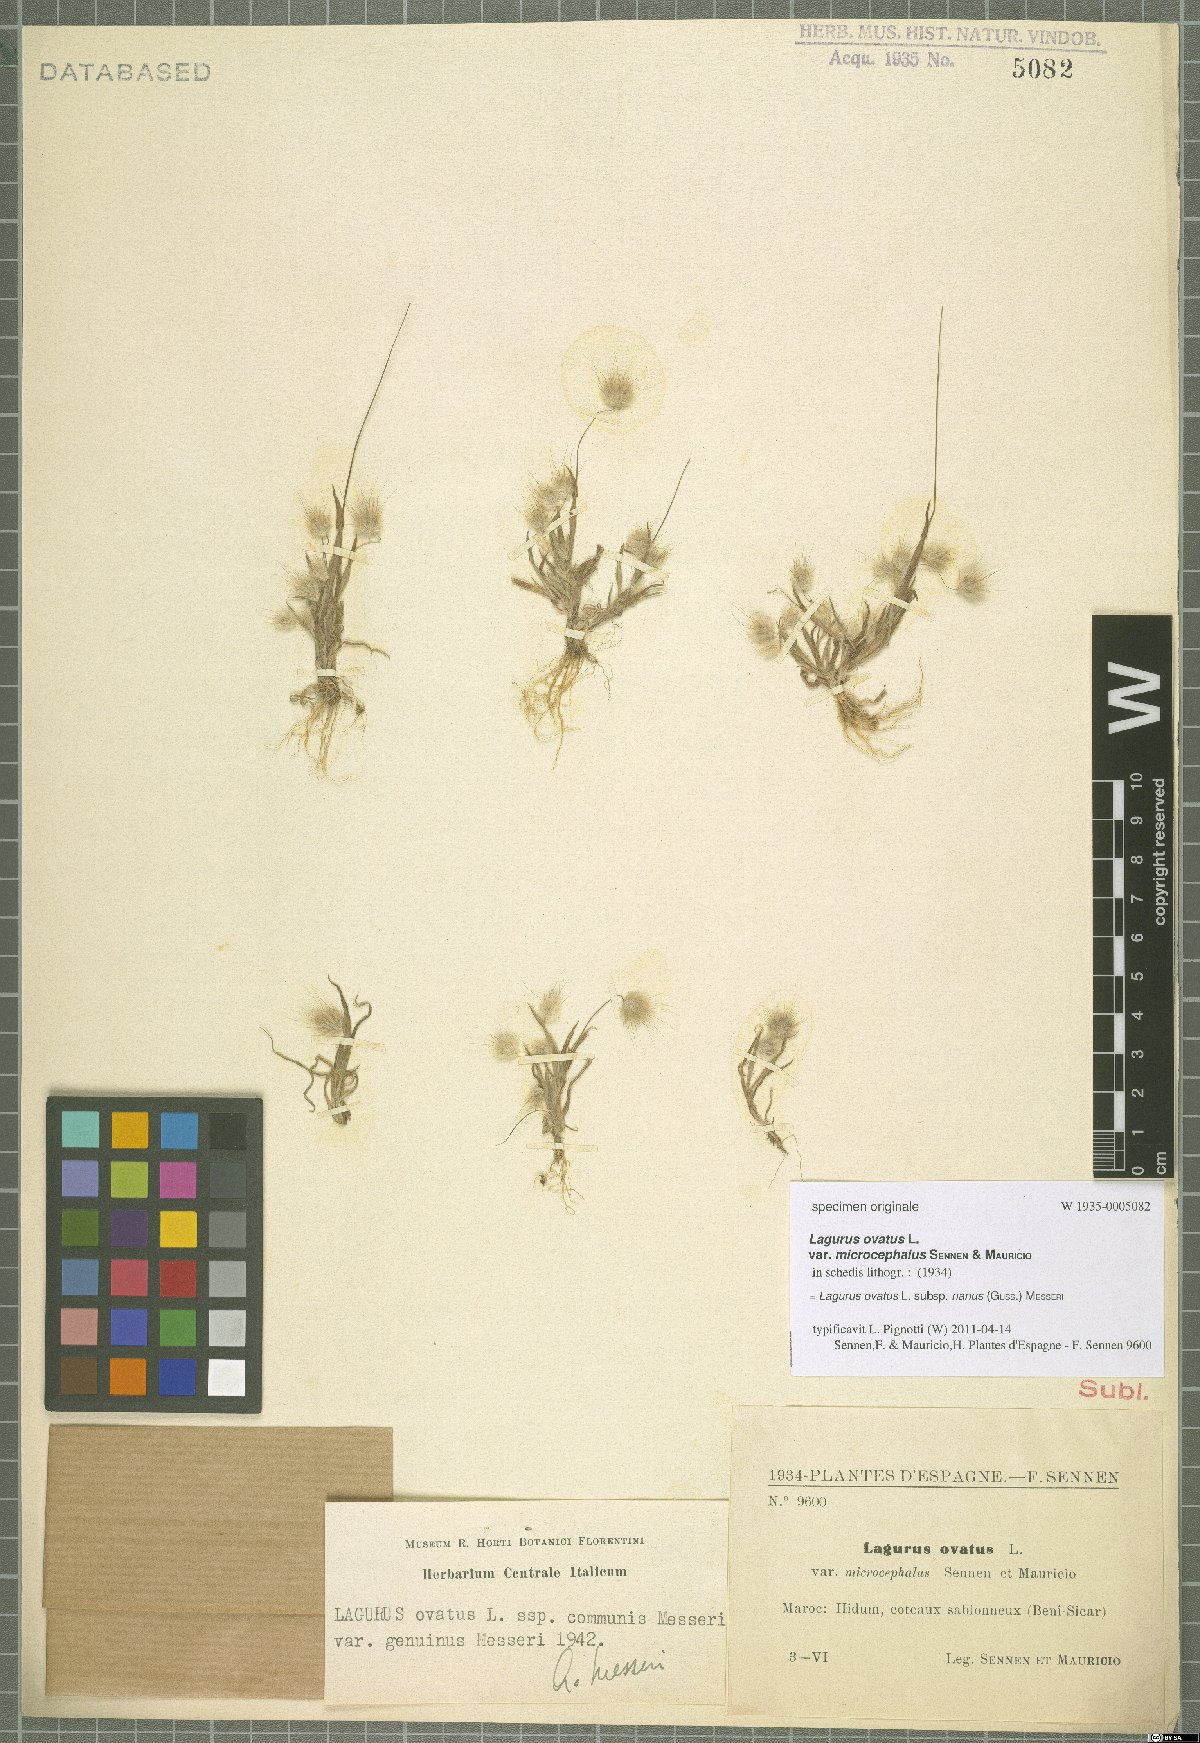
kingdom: Plantae
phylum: Tracheophyta
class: Liliopsida
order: Poales
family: Poaceae
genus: Lagurus
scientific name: Lagurus ovatus
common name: Hare's-tail
